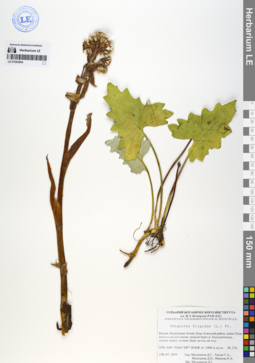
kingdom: Plantae
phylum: Tracheophyta
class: Magnoliopsida
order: Asterales
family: Asteraceae
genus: Petasites
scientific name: Petasites frigidus
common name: Arctic butterbur
